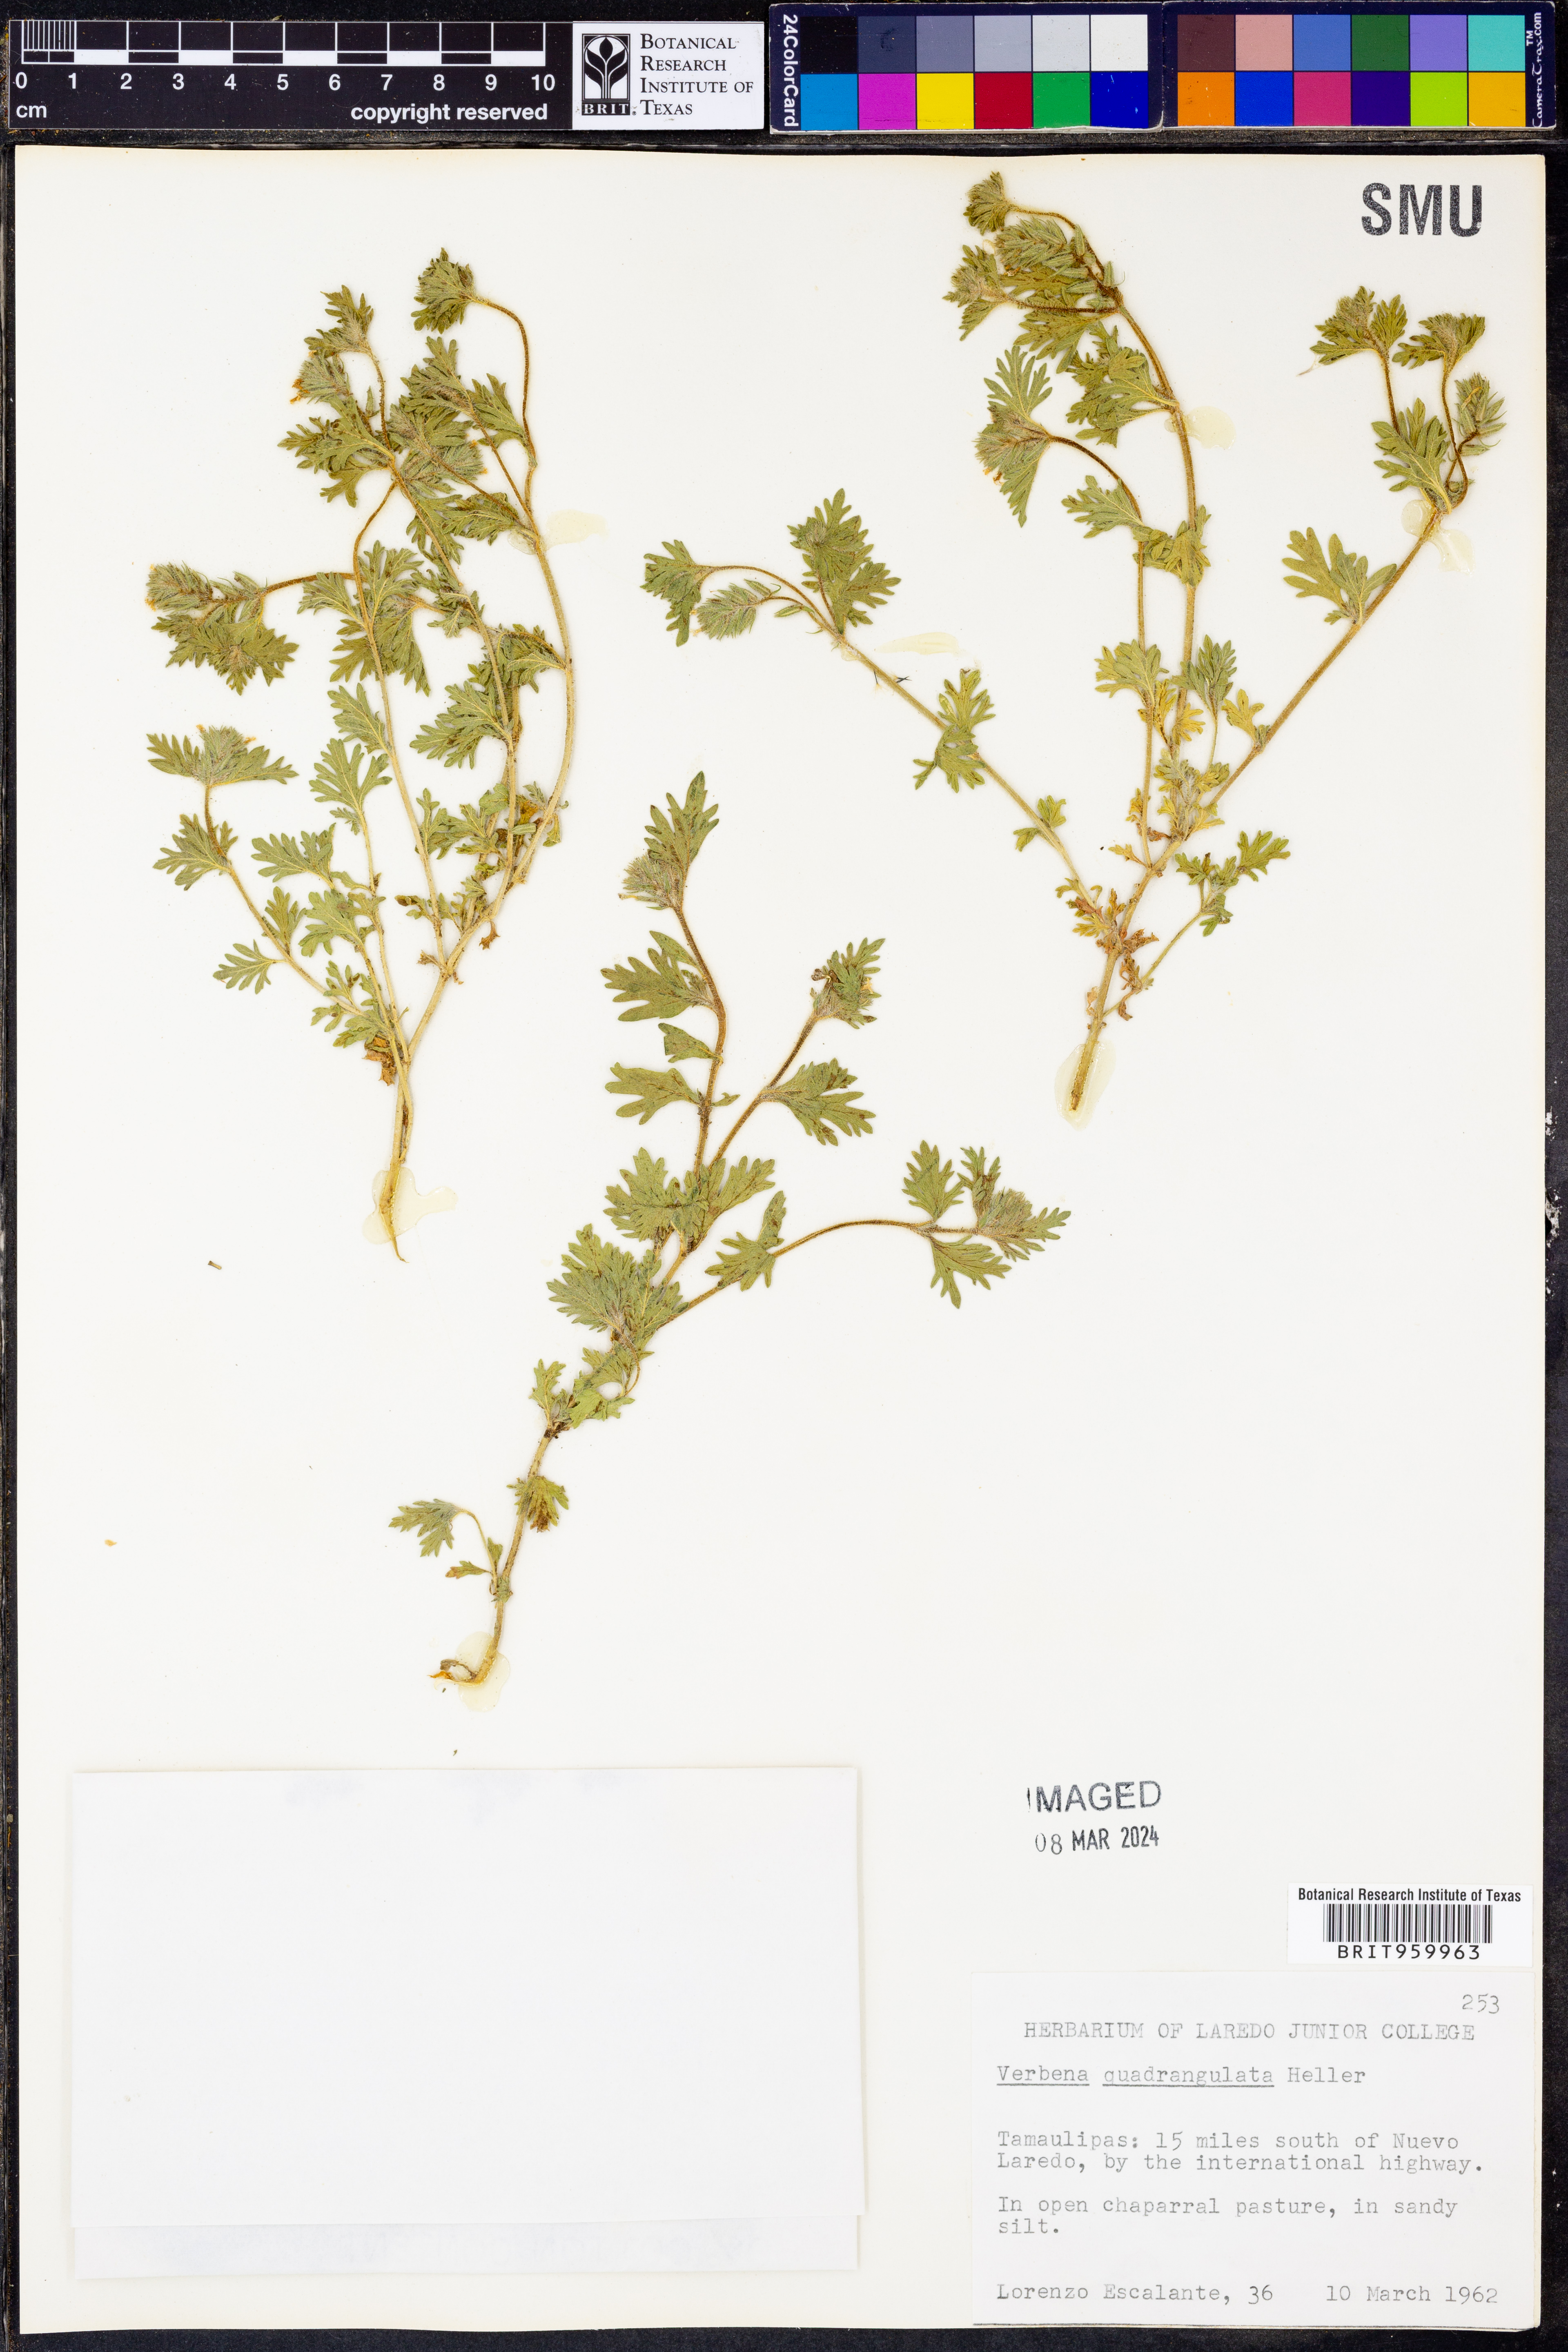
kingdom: Plantae
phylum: Tracheophyta
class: Magnoliopsida
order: Lamiales
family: Verbenaceae
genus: Verbena
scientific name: Verbena quadrangulata
